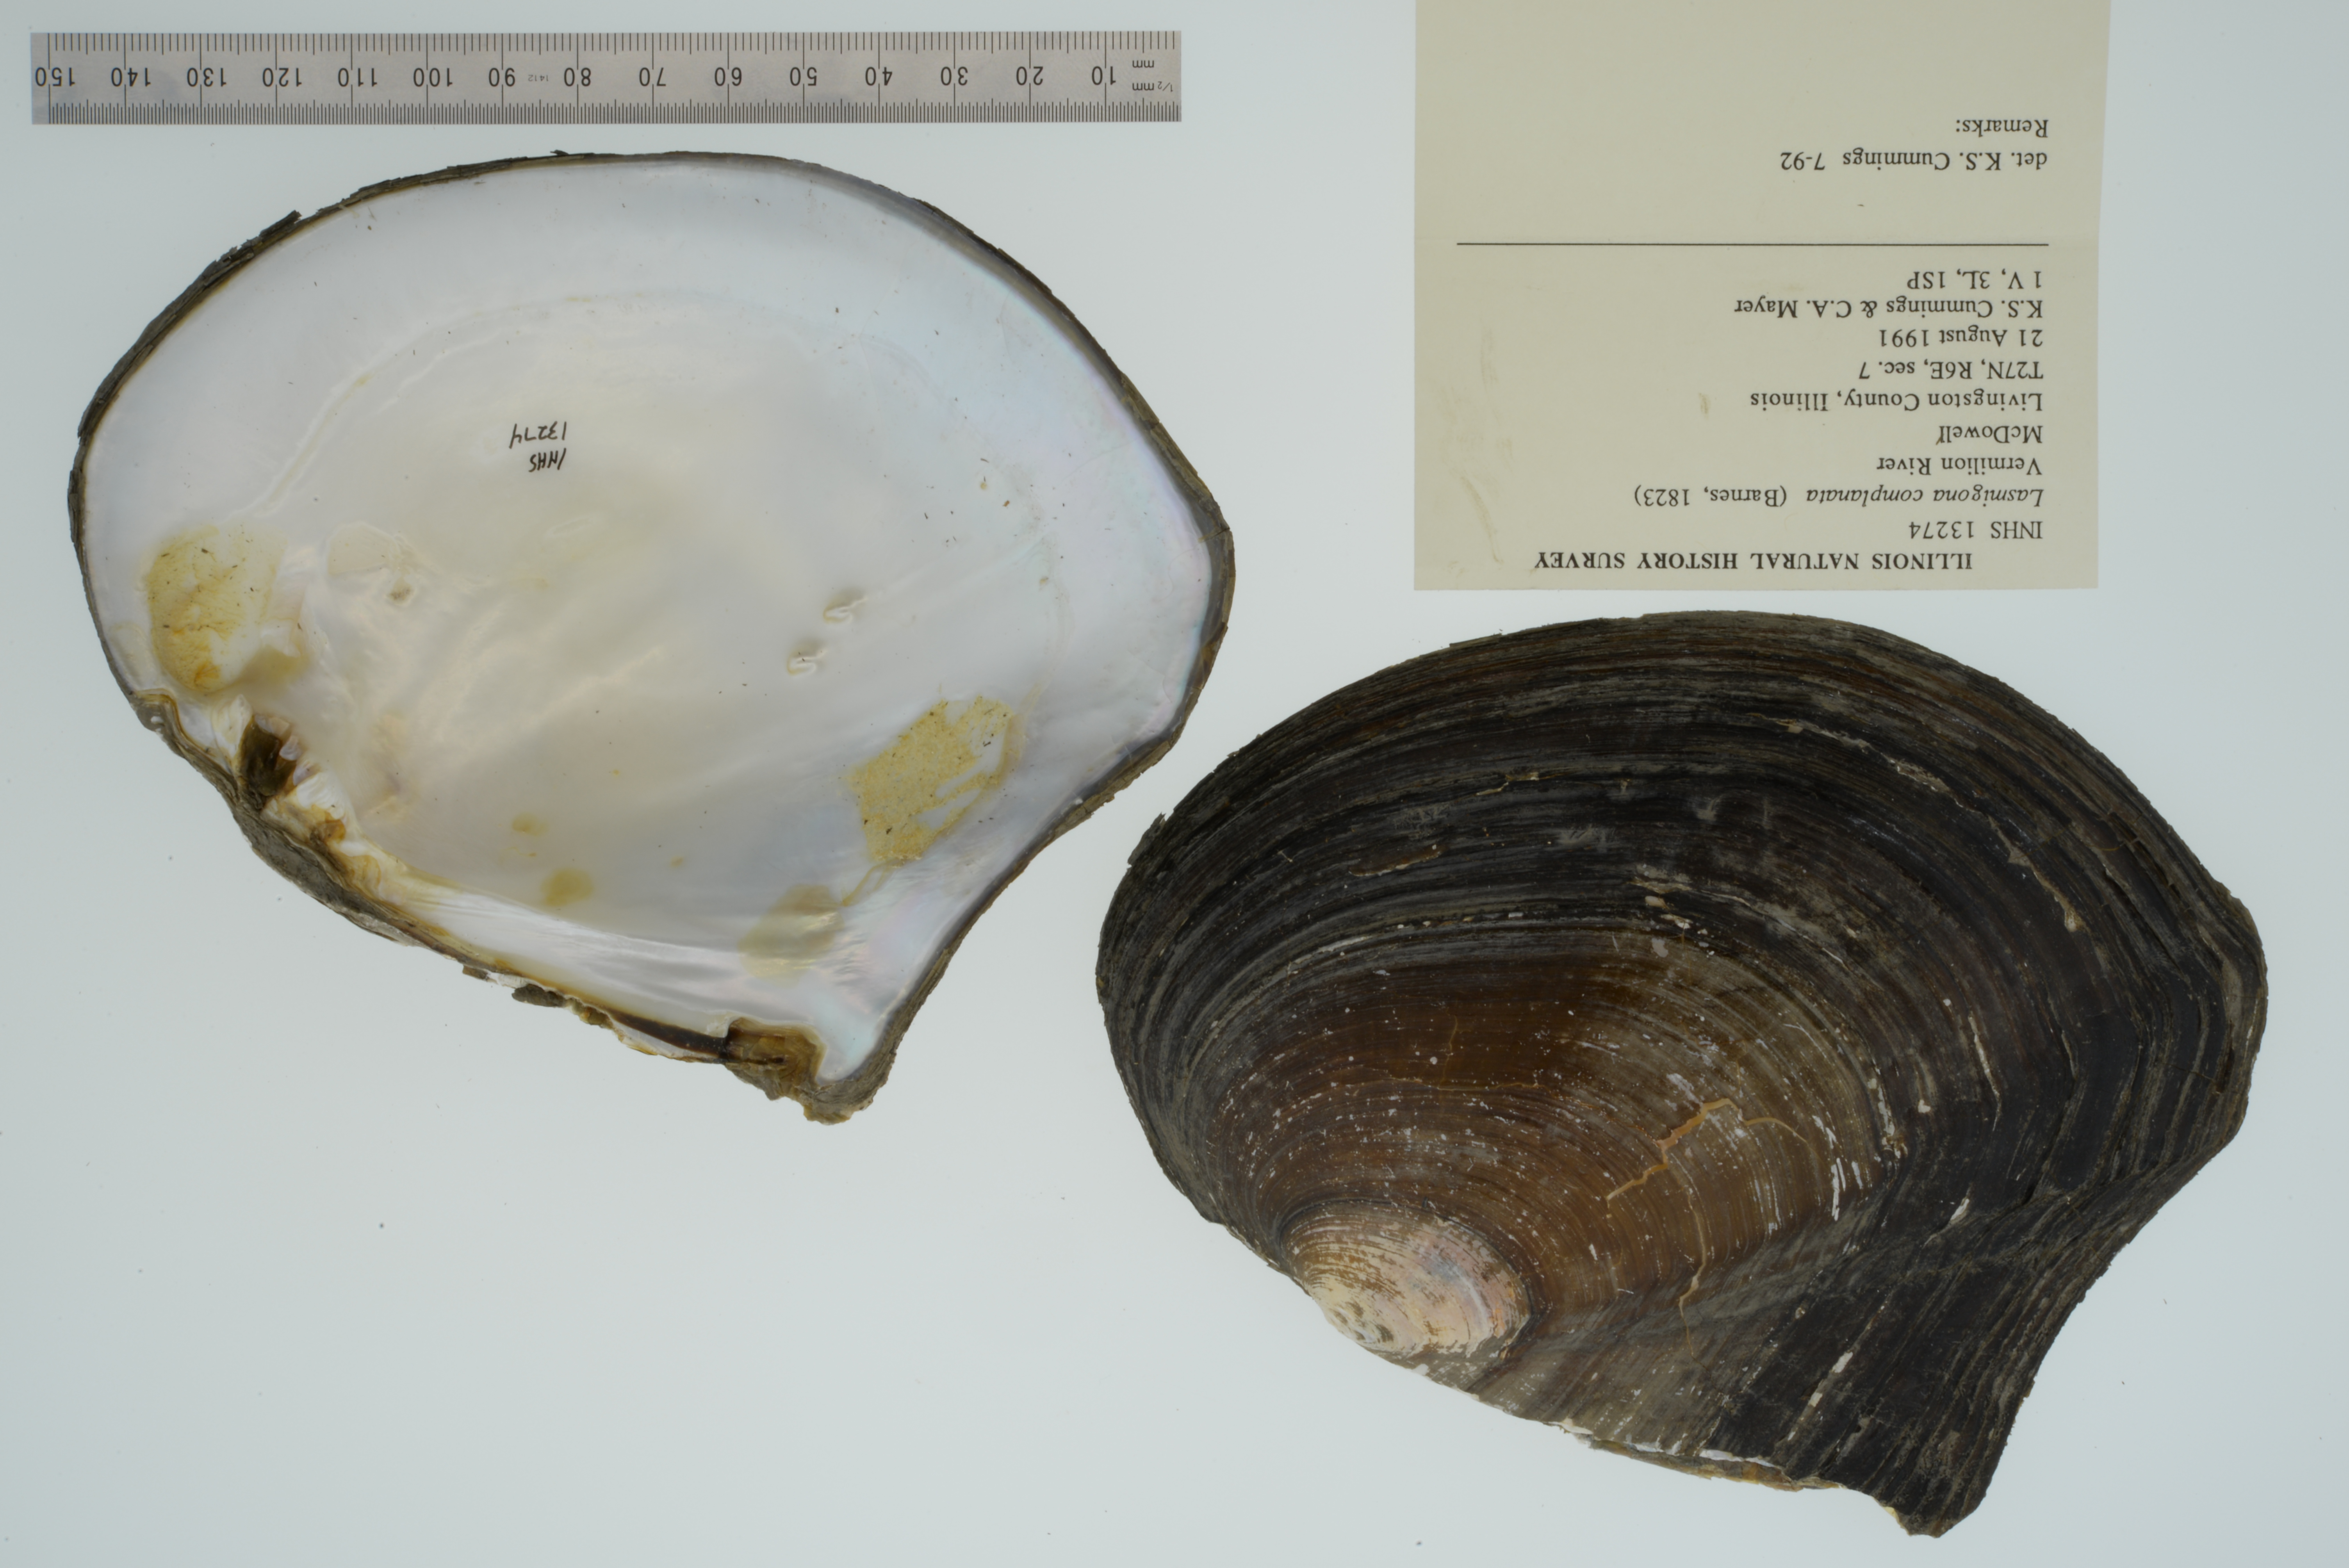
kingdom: Animalia
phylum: Mollusca
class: Bivalvia
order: Unionida
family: Unionidae
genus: Lasmigona
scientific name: Lasmigona complanata
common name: White heelsplitter
